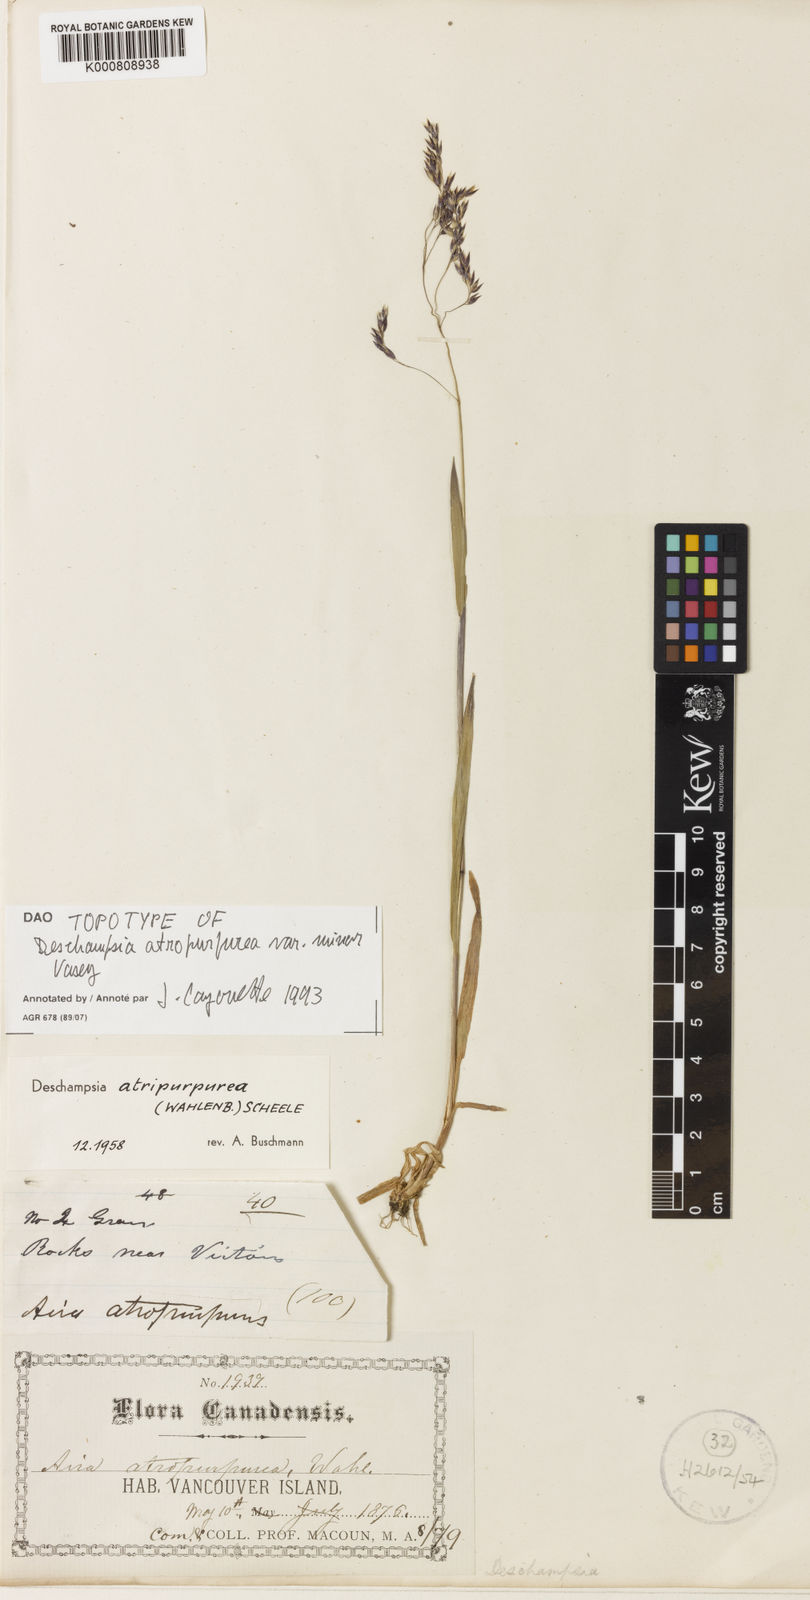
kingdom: Plantae
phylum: Tracheophyta
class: Liliopsida
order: Poales
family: Poaceae
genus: Vahlodea
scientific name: Vahlodea atropurpurea
